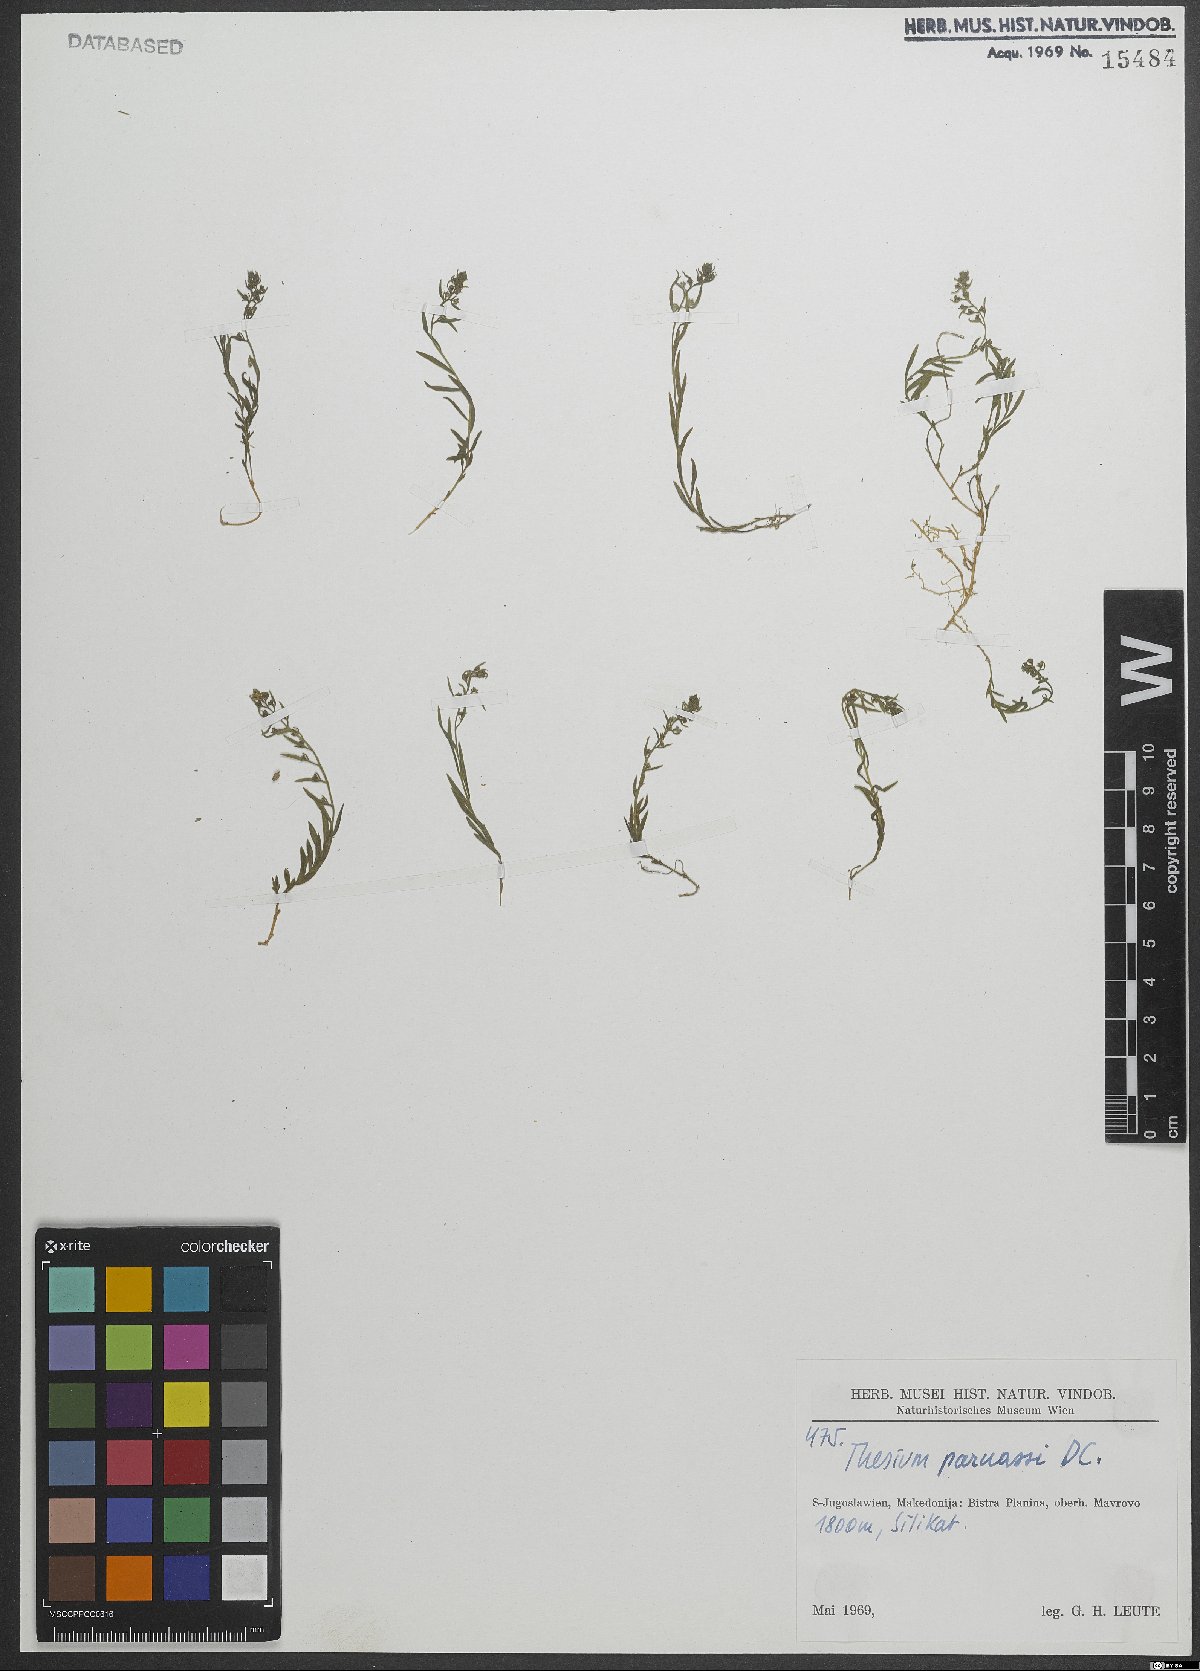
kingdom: Plantae
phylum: Tracheophyta
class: Magnoliopsida
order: Santalales
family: Thesiaceae
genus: Thesium
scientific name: Thesium parnassi
